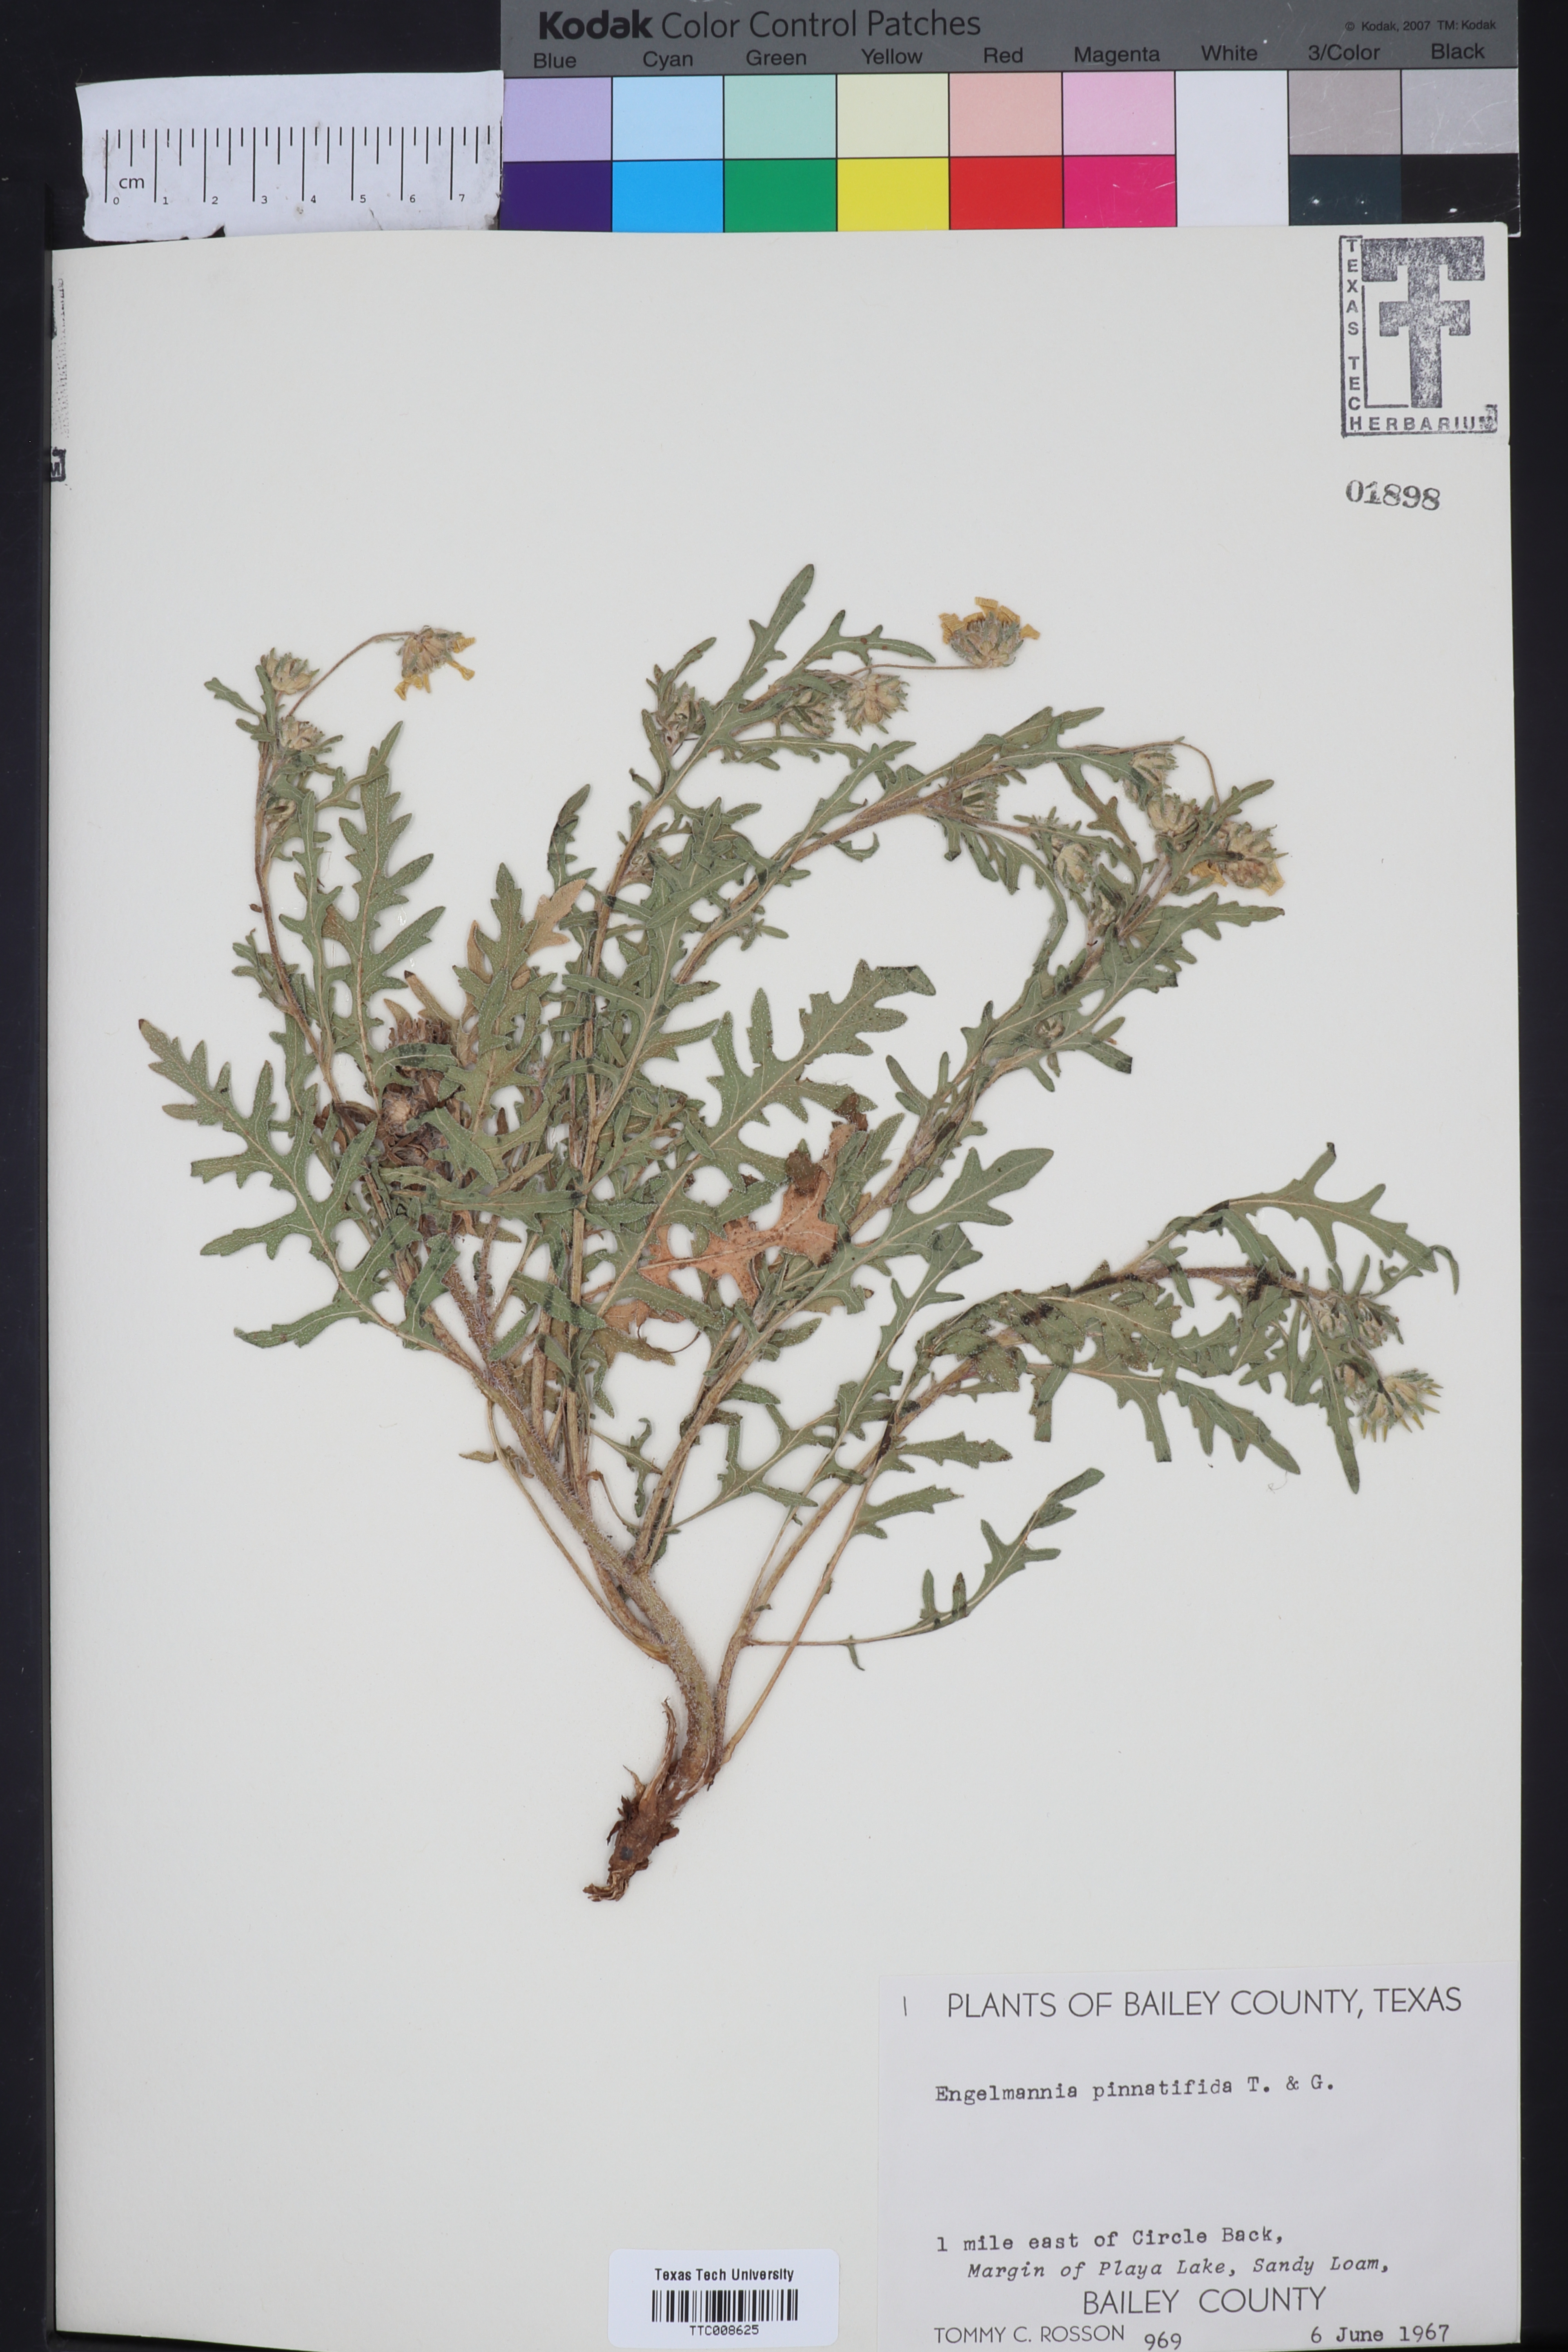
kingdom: Plantae
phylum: Tracheophyta
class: Magnoliopsida
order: Asterales
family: Asteraceae
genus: Engelmannia
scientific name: Engelmannia peristenia
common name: Engelmann's daisy
